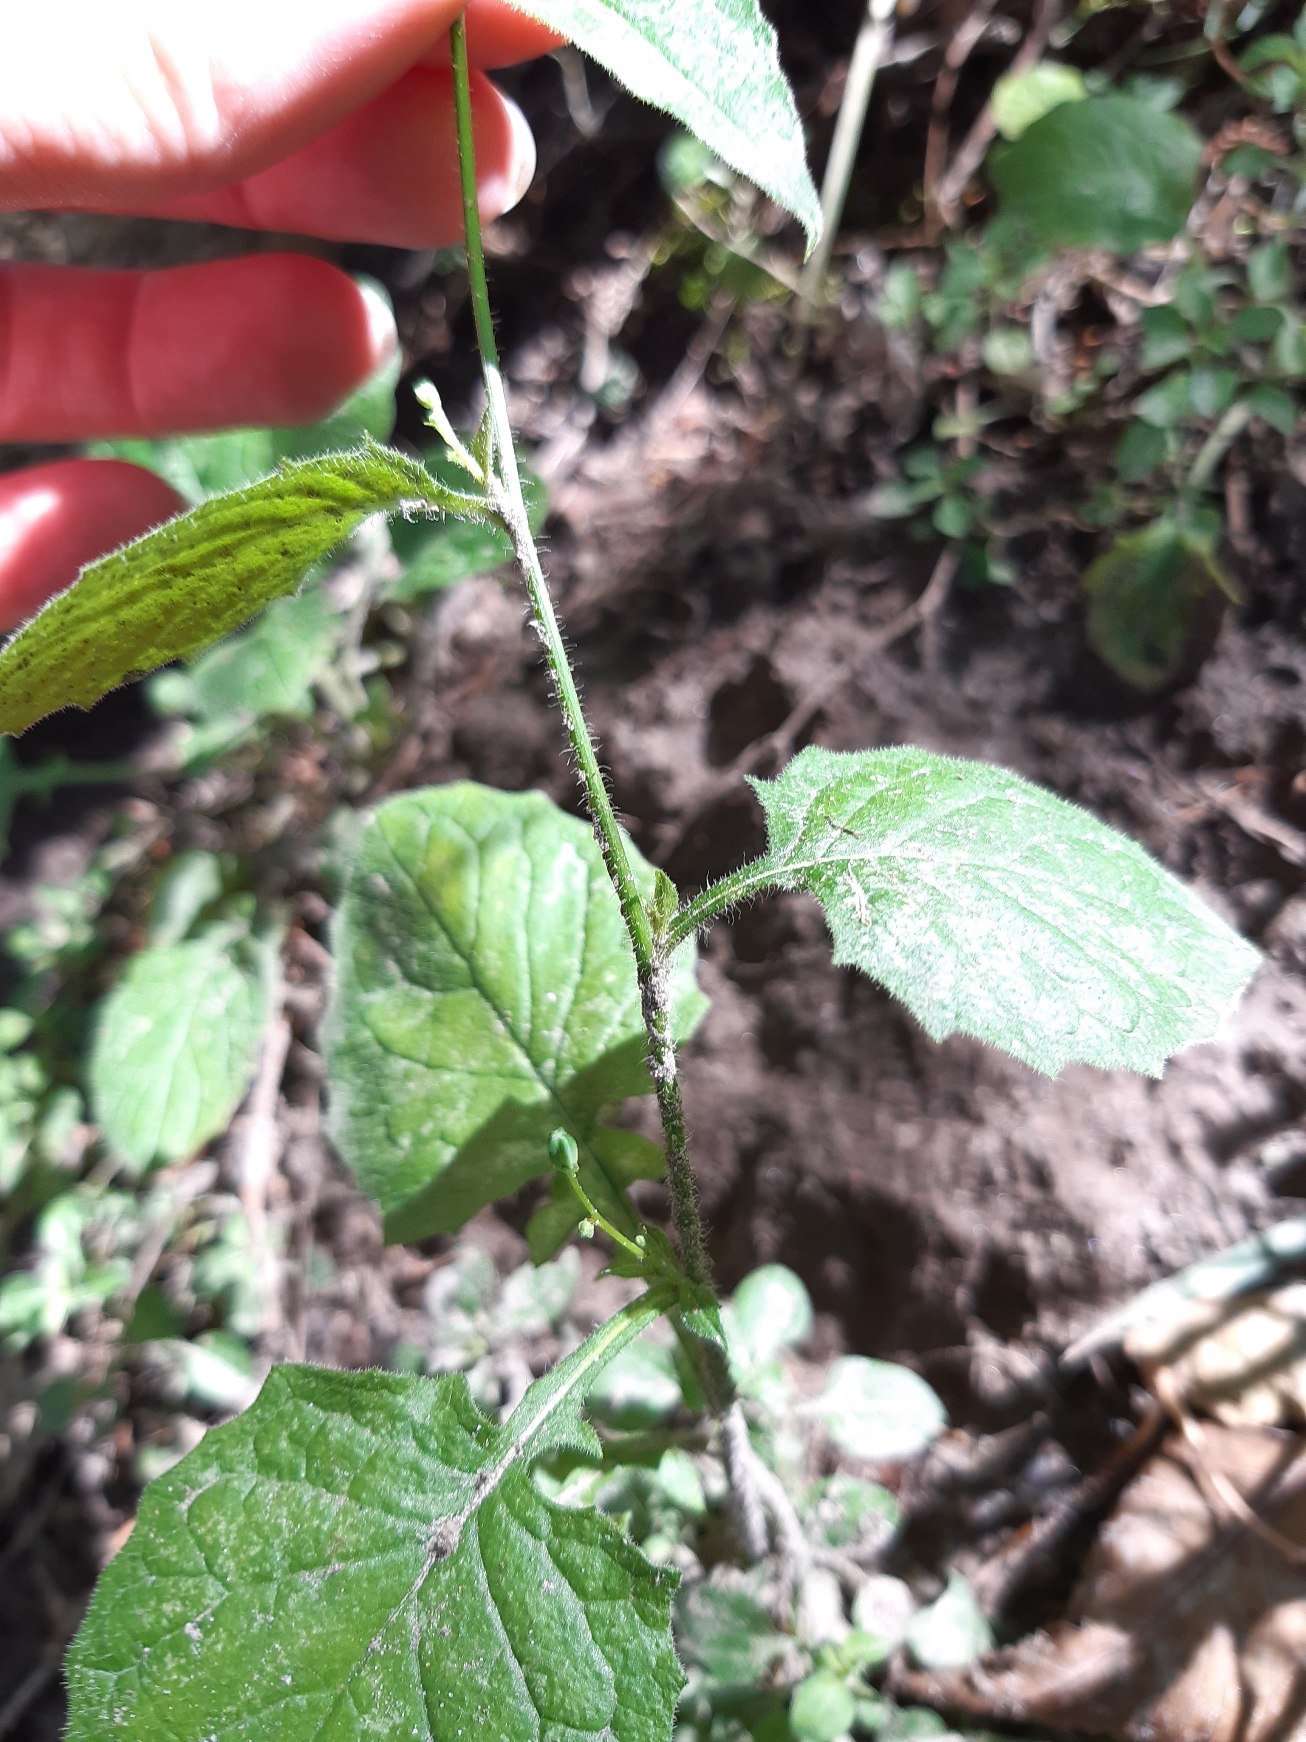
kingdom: Plantae
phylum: Tracheophyta
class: Magnoliopsida
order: Asterales
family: Asteraceae
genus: Lapsana
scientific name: Lapsana communis
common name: Haremad
